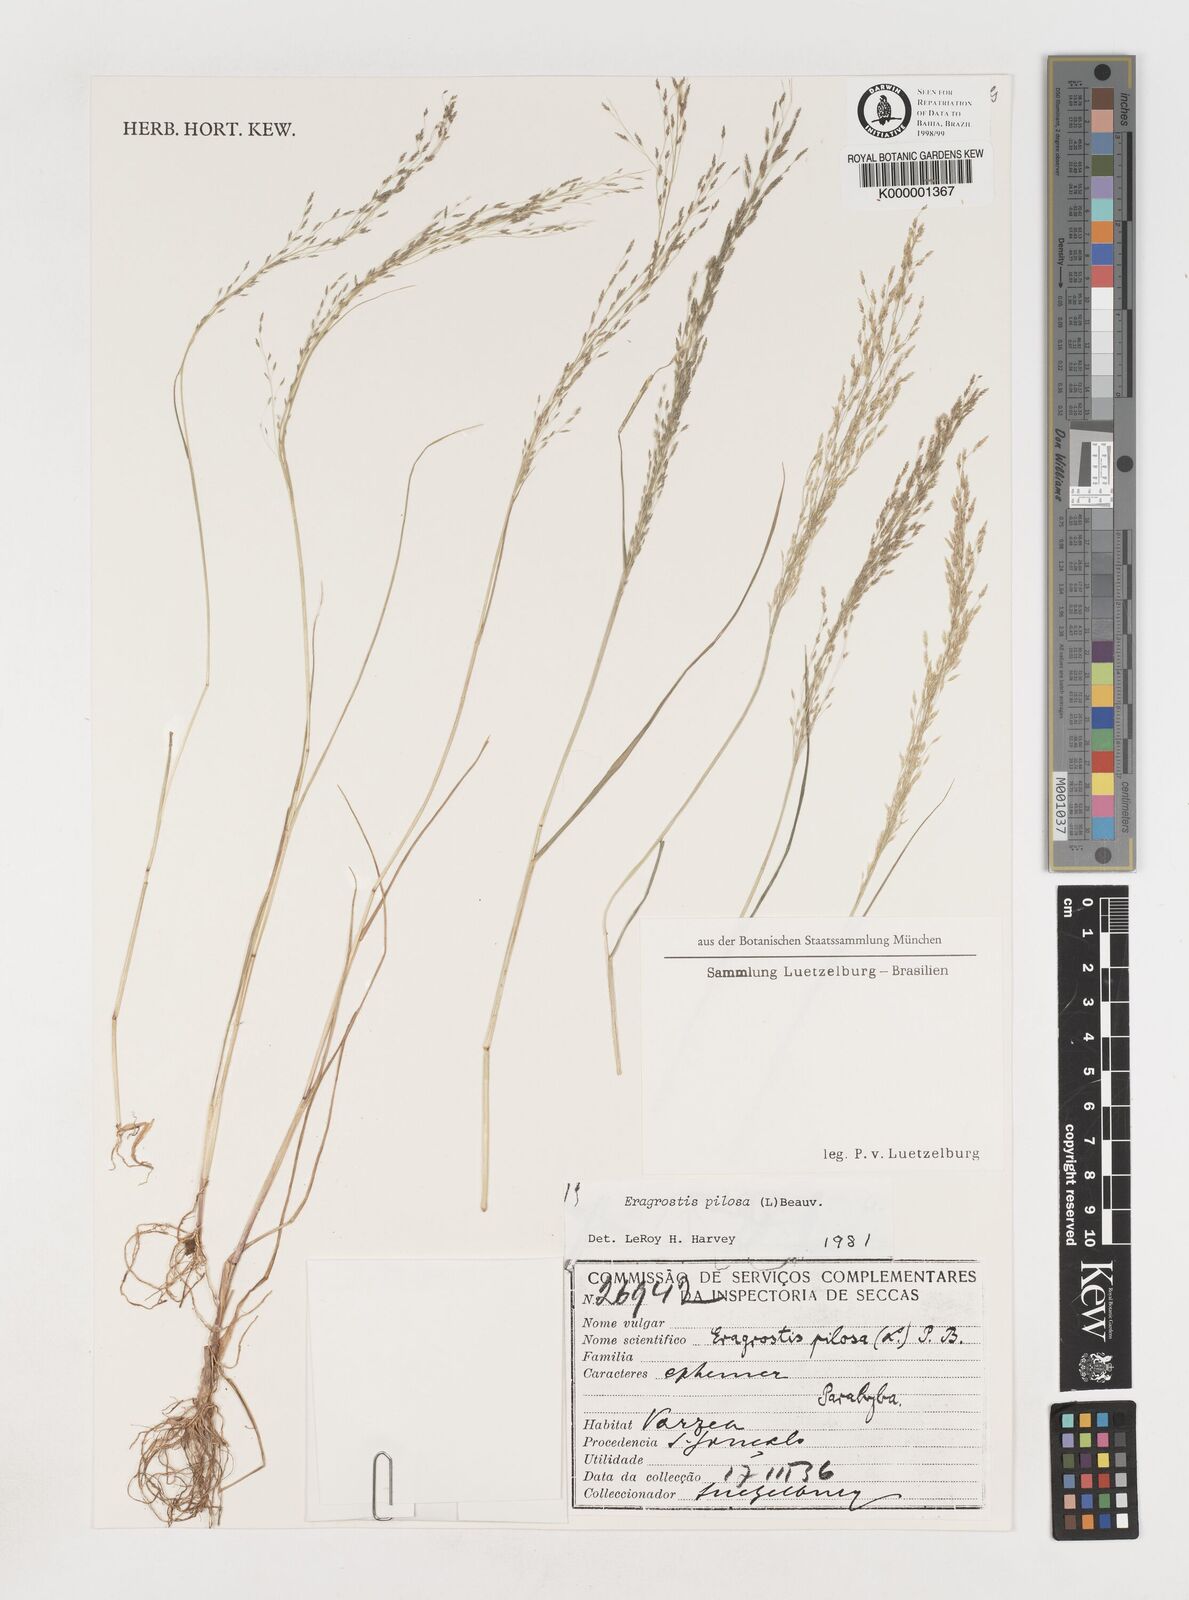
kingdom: Plantae
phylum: Tracheophyta
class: Liliopsida
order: Poales
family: Poaceae
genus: Eragrostis
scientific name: Eragrostis pilosa
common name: Indian lovegrass
